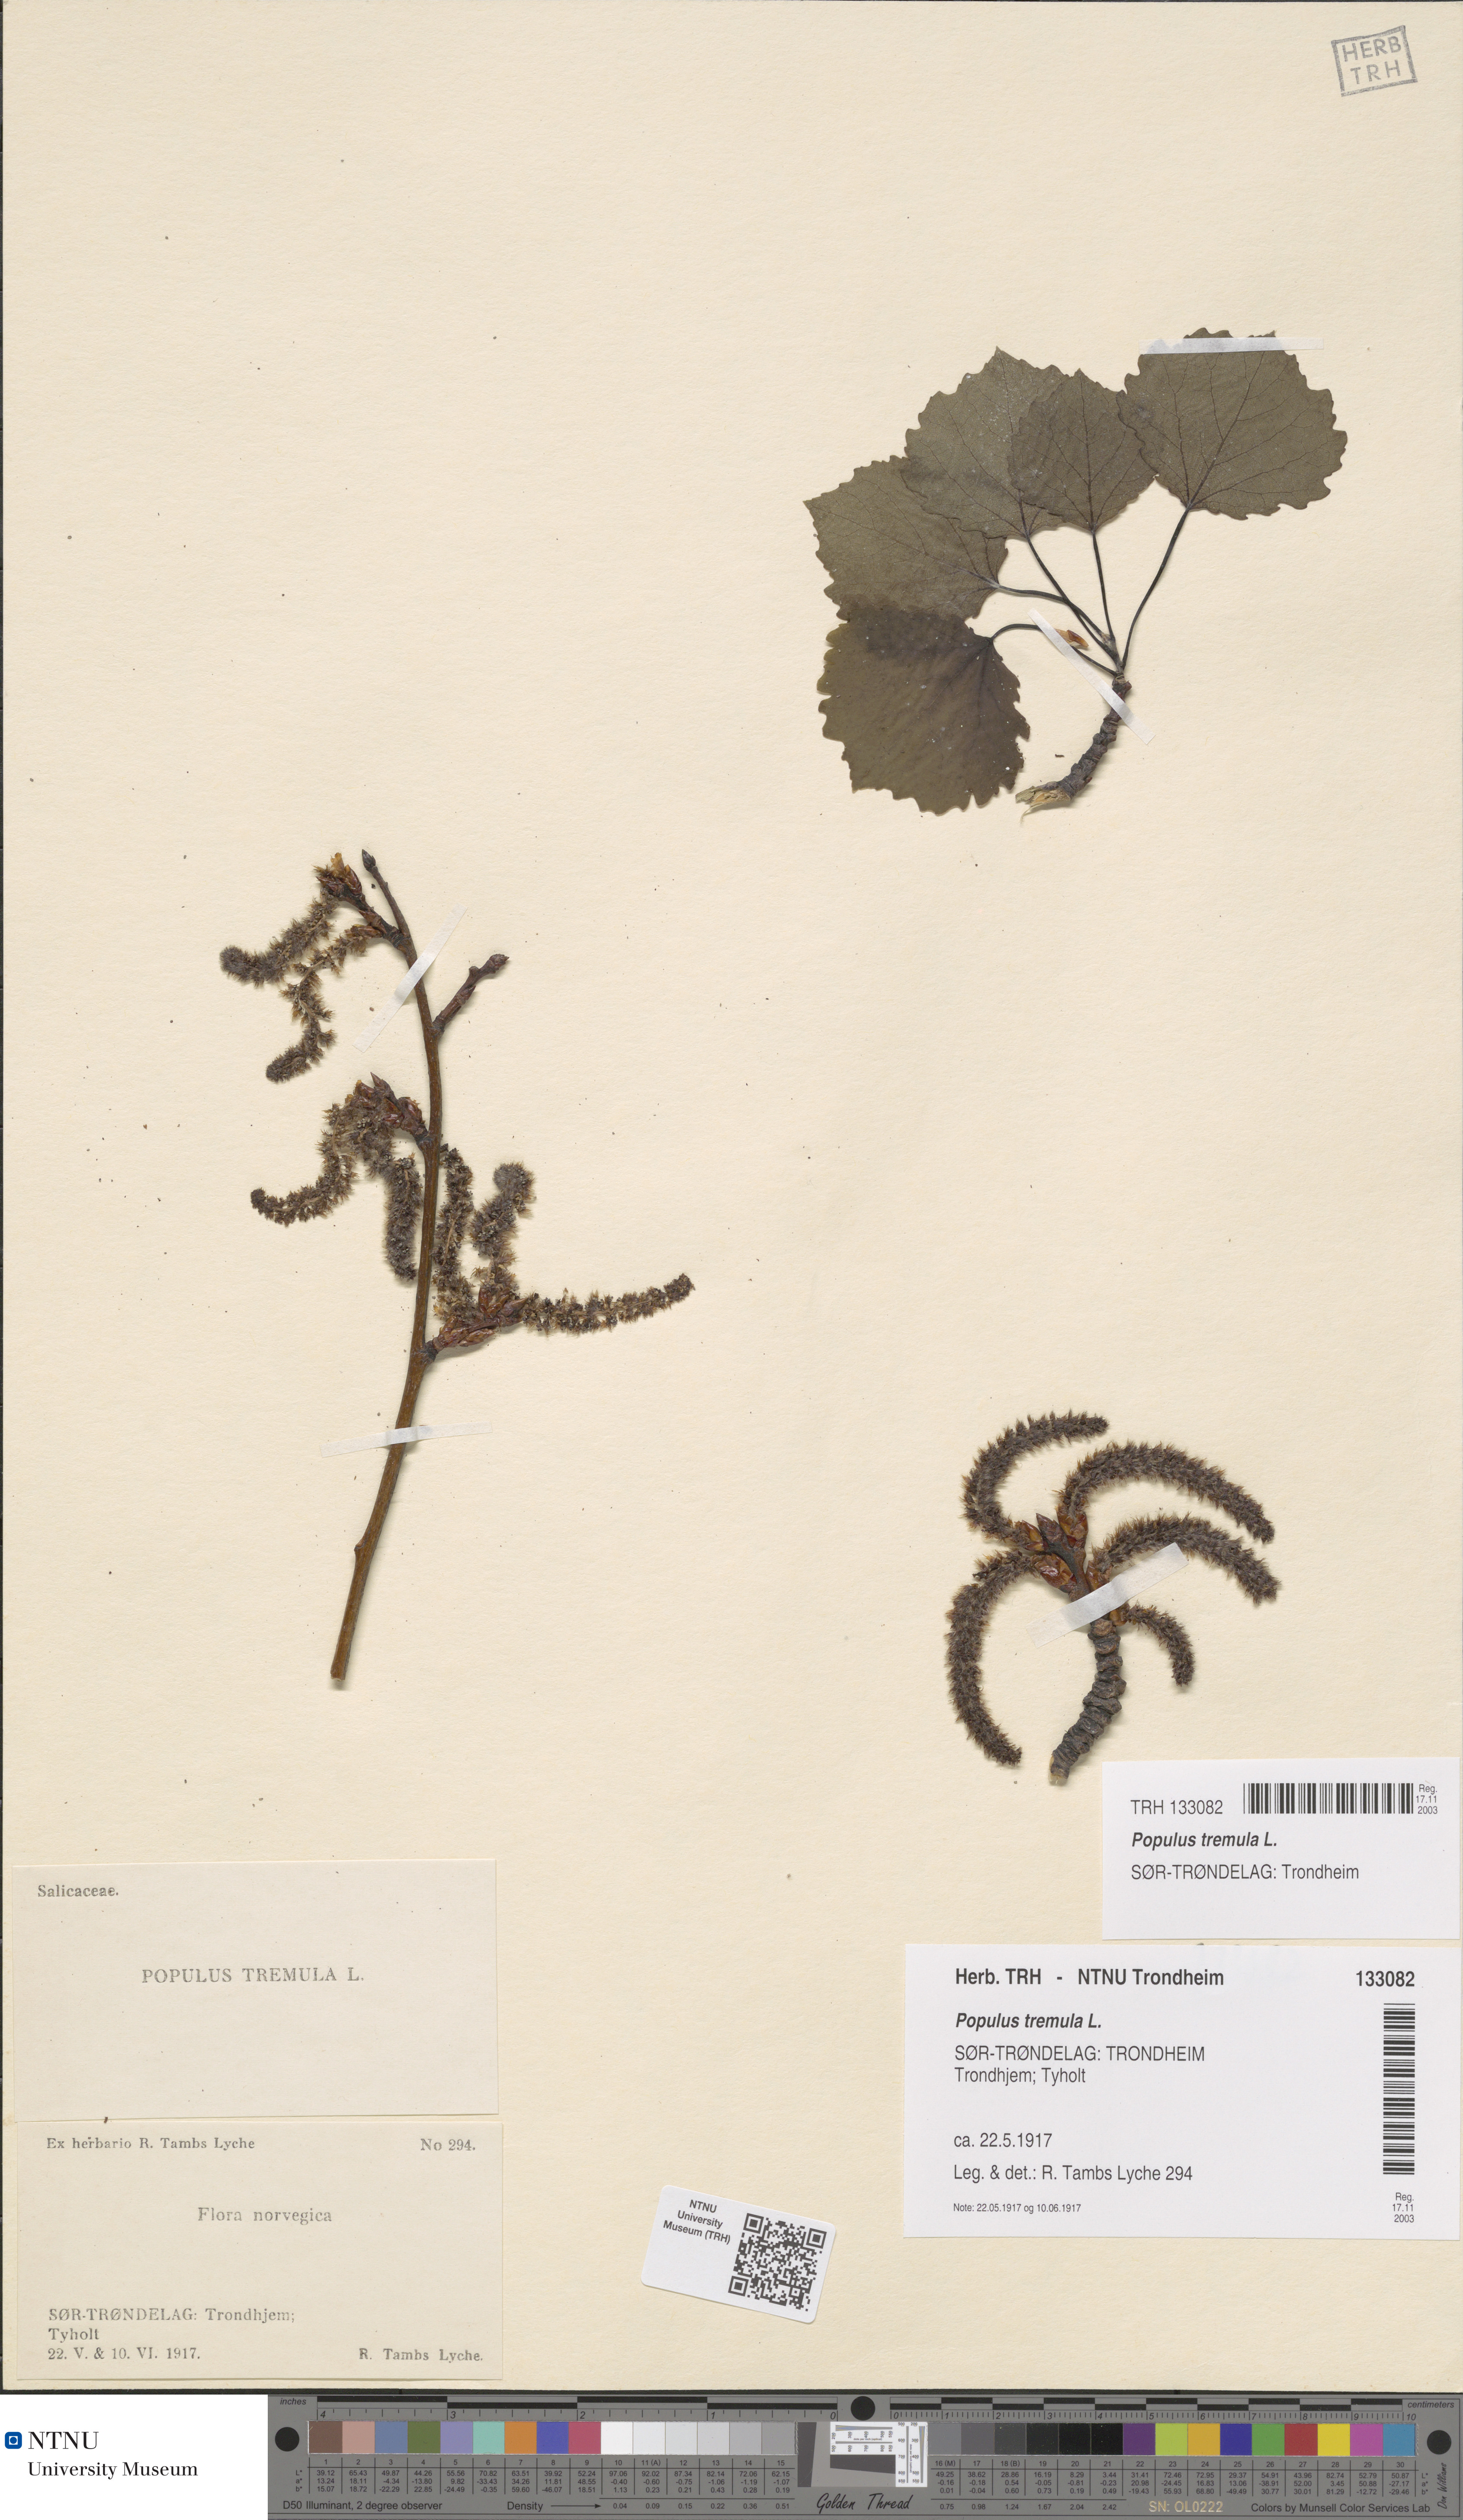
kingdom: Plantae
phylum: Tracheophyta
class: Magnoliopsida
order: Malpighiales
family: Salicaceae
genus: Populus
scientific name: Populus tremula
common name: European aspen
